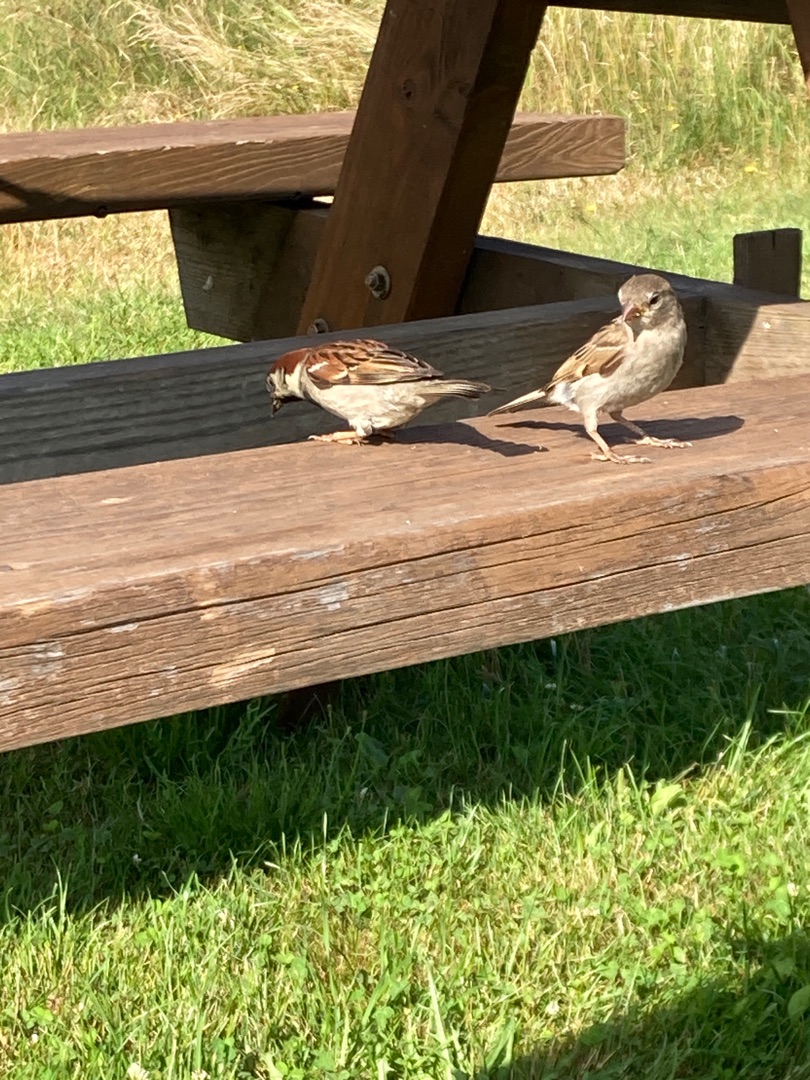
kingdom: Animalia
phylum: Chordata
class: Aves
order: Passeriformes
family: Passeridae
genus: Passer
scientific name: Passer domesticus
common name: Gråspurv
